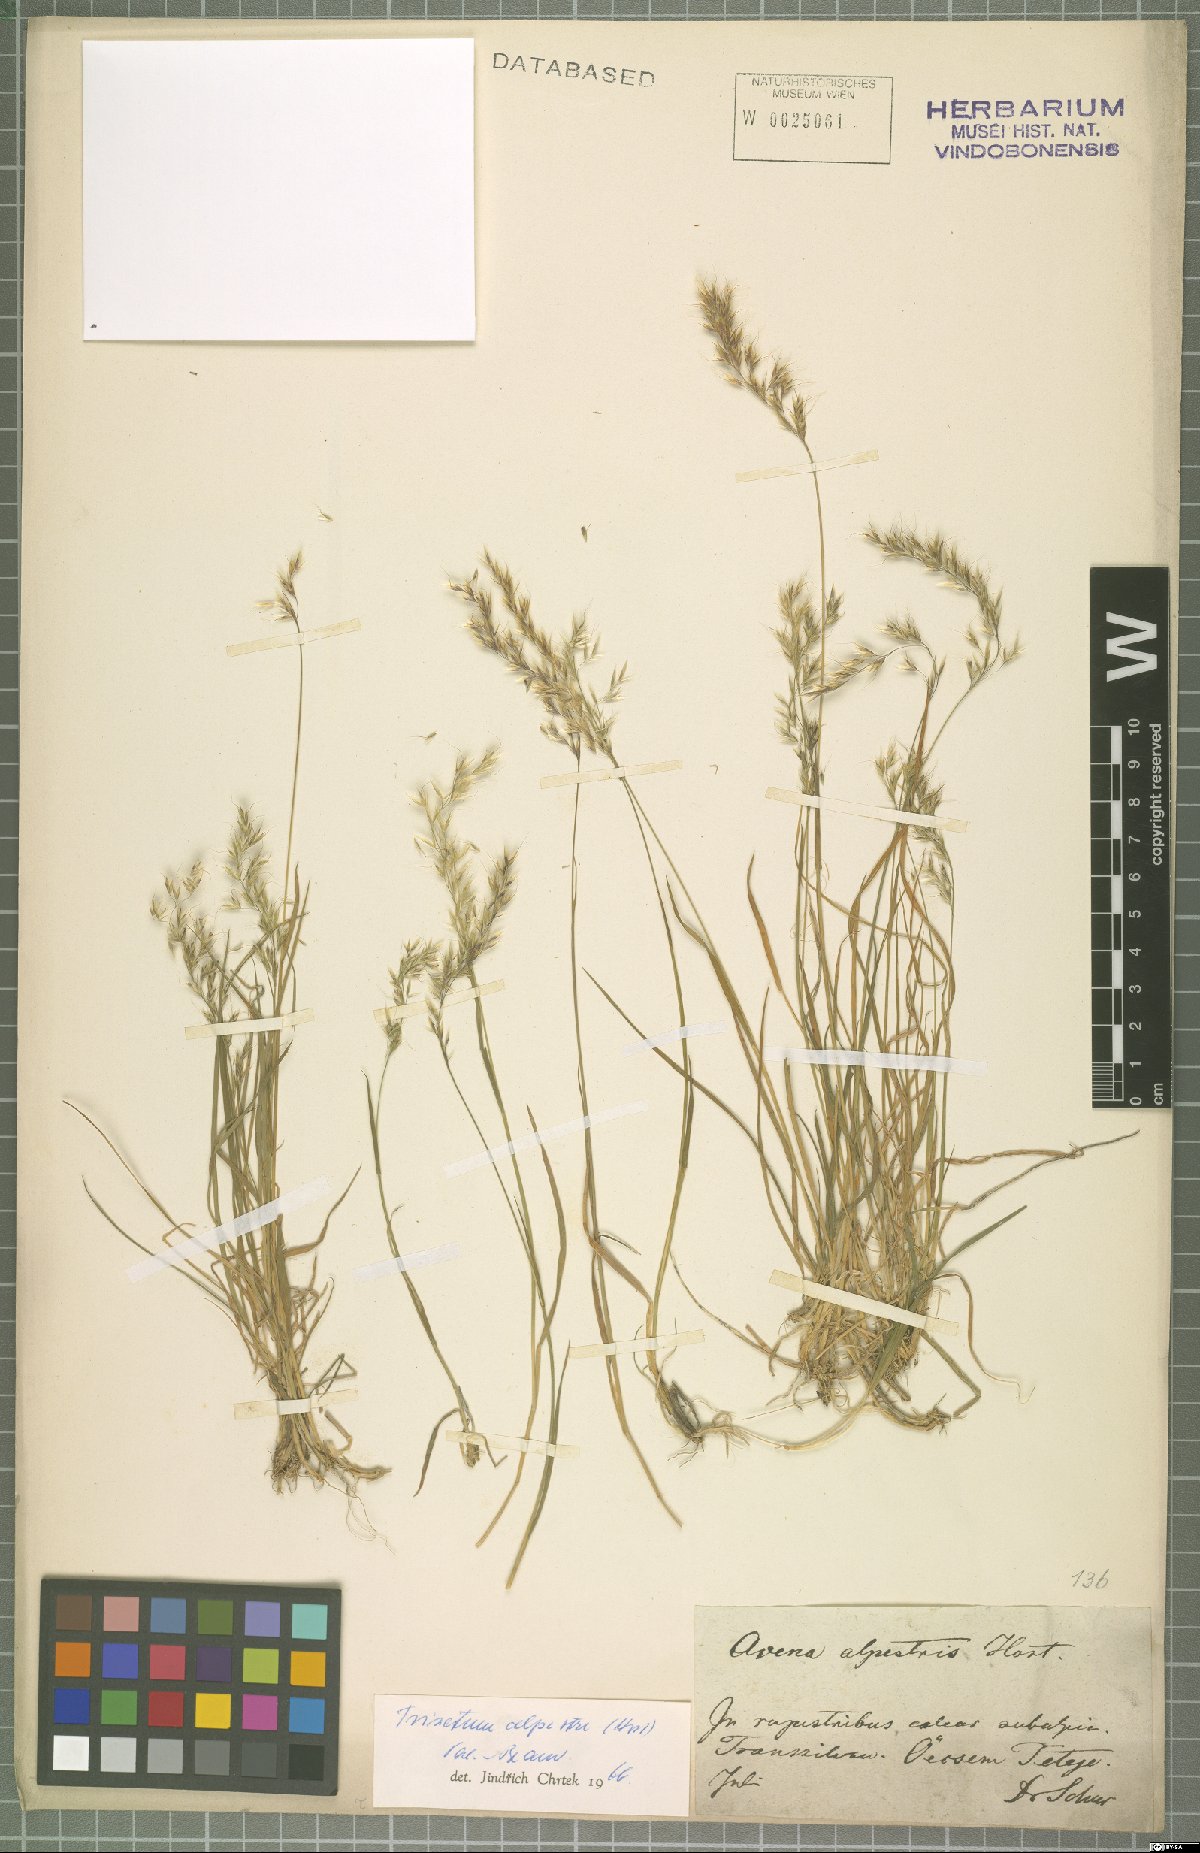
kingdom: Plantae
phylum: Tracheophyta
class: Liliopsida
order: Poales
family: Poaceae
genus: Trisetum
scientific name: Trisetum alpestre
